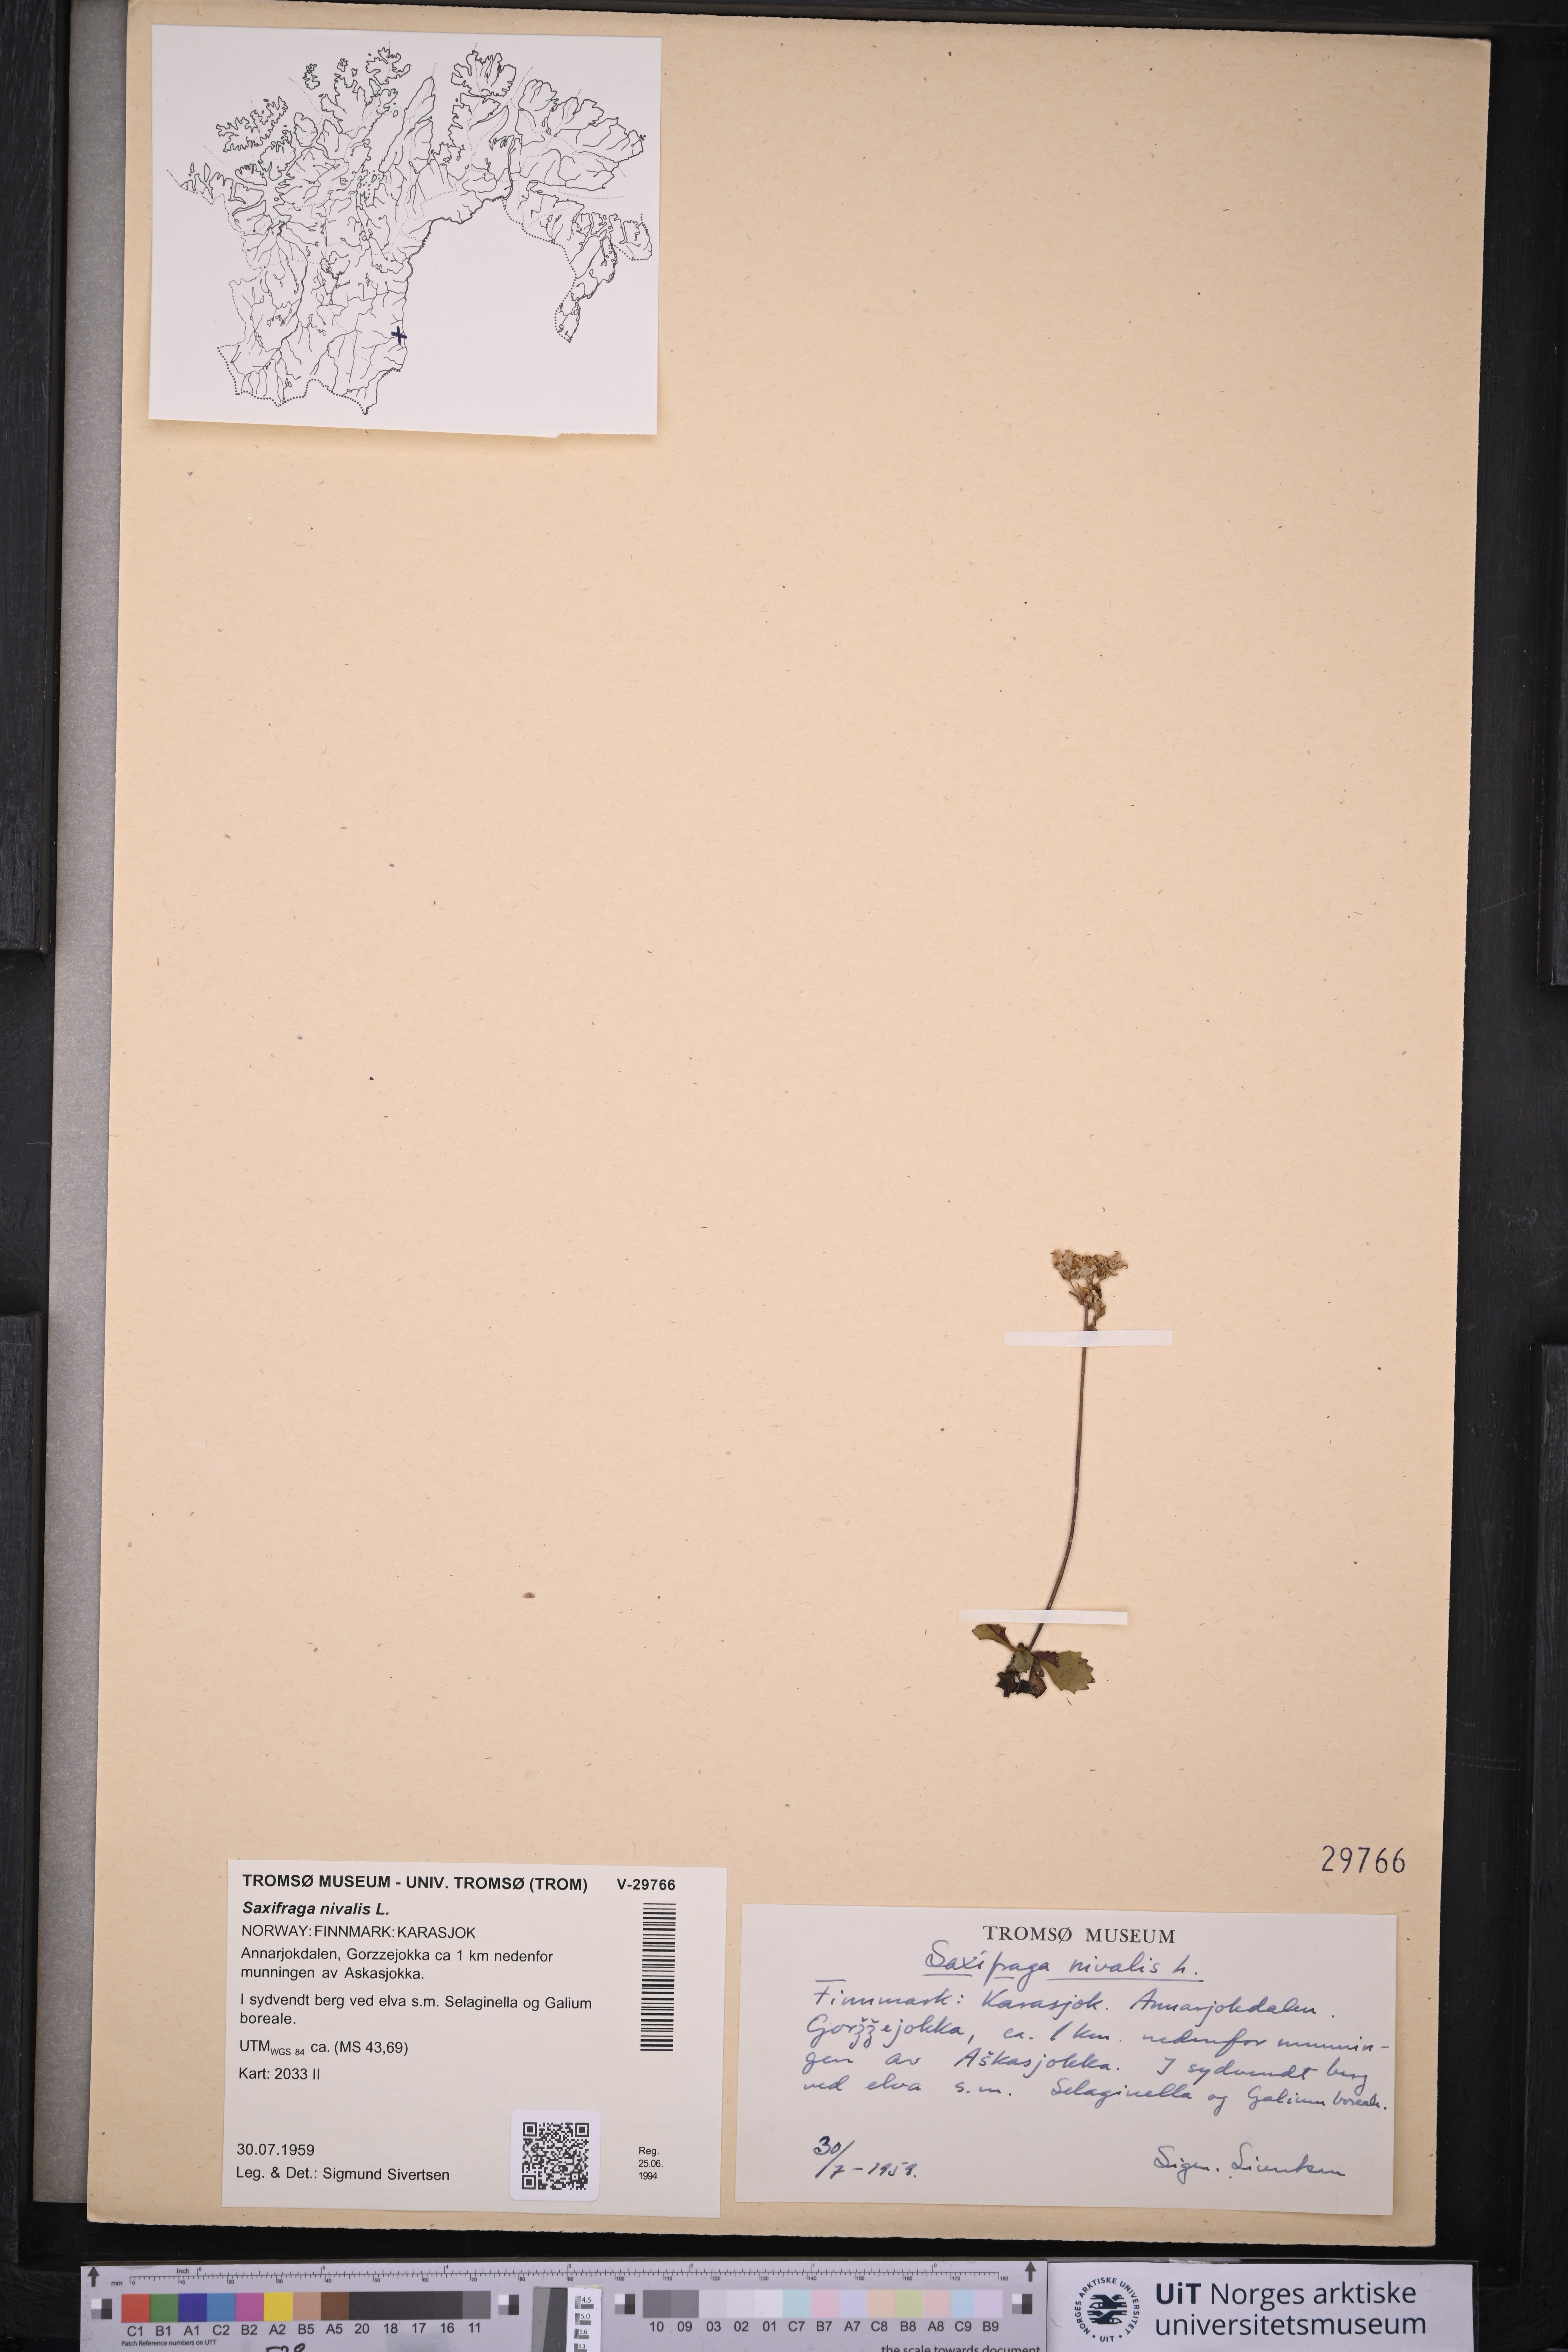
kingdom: Plantae
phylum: Tracheophyta
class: Magnoliopsida
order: Saxifragales
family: Saxifragaceae
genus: Micranthes
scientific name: Micranthes nivalis
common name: Alpine saxifrage
